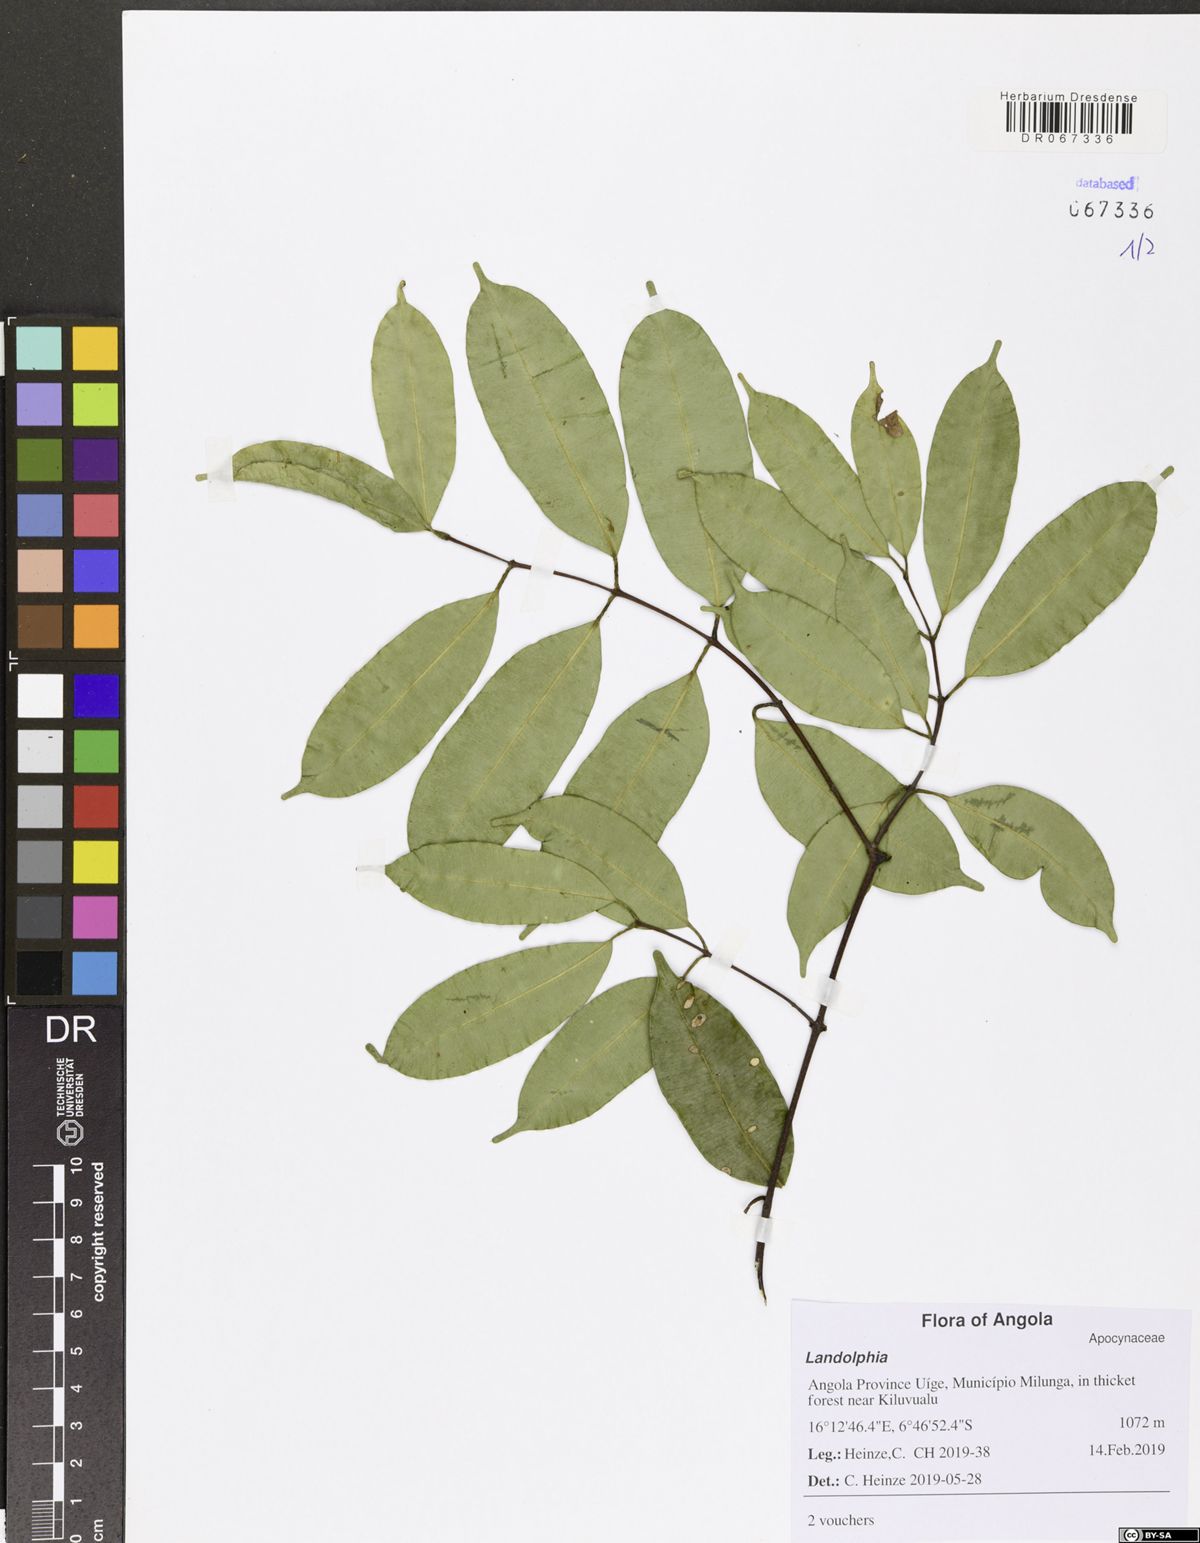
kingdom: Plantae
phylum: Tracheophyta
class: Magnoliopsida
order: Gentianales
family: Apocynaceae
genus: Landolphia
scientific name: Landolphia
